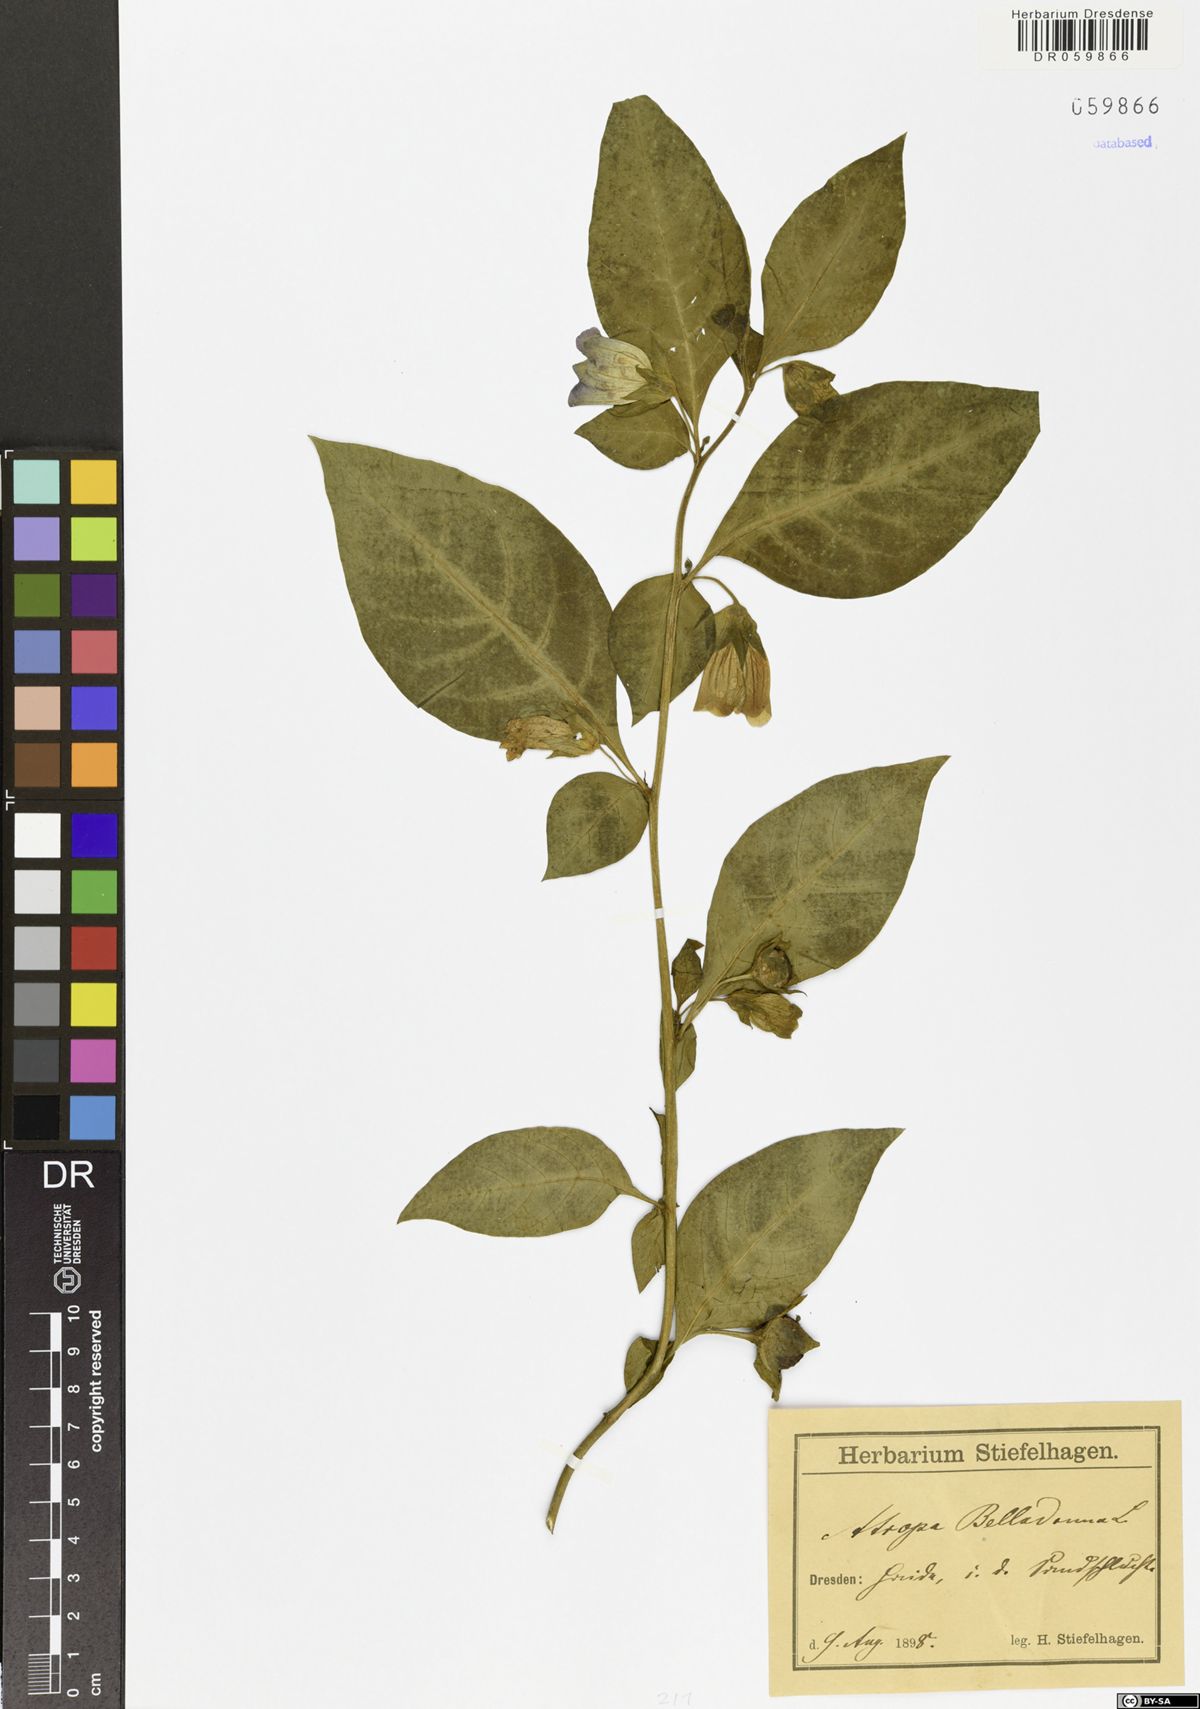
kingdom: Plantae
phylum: Tracheophyta
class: Magnoliopsida
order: Solanales
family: Solanaceae
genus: Atropa
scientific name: Atropa belladonna
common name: Deadly nightshade
